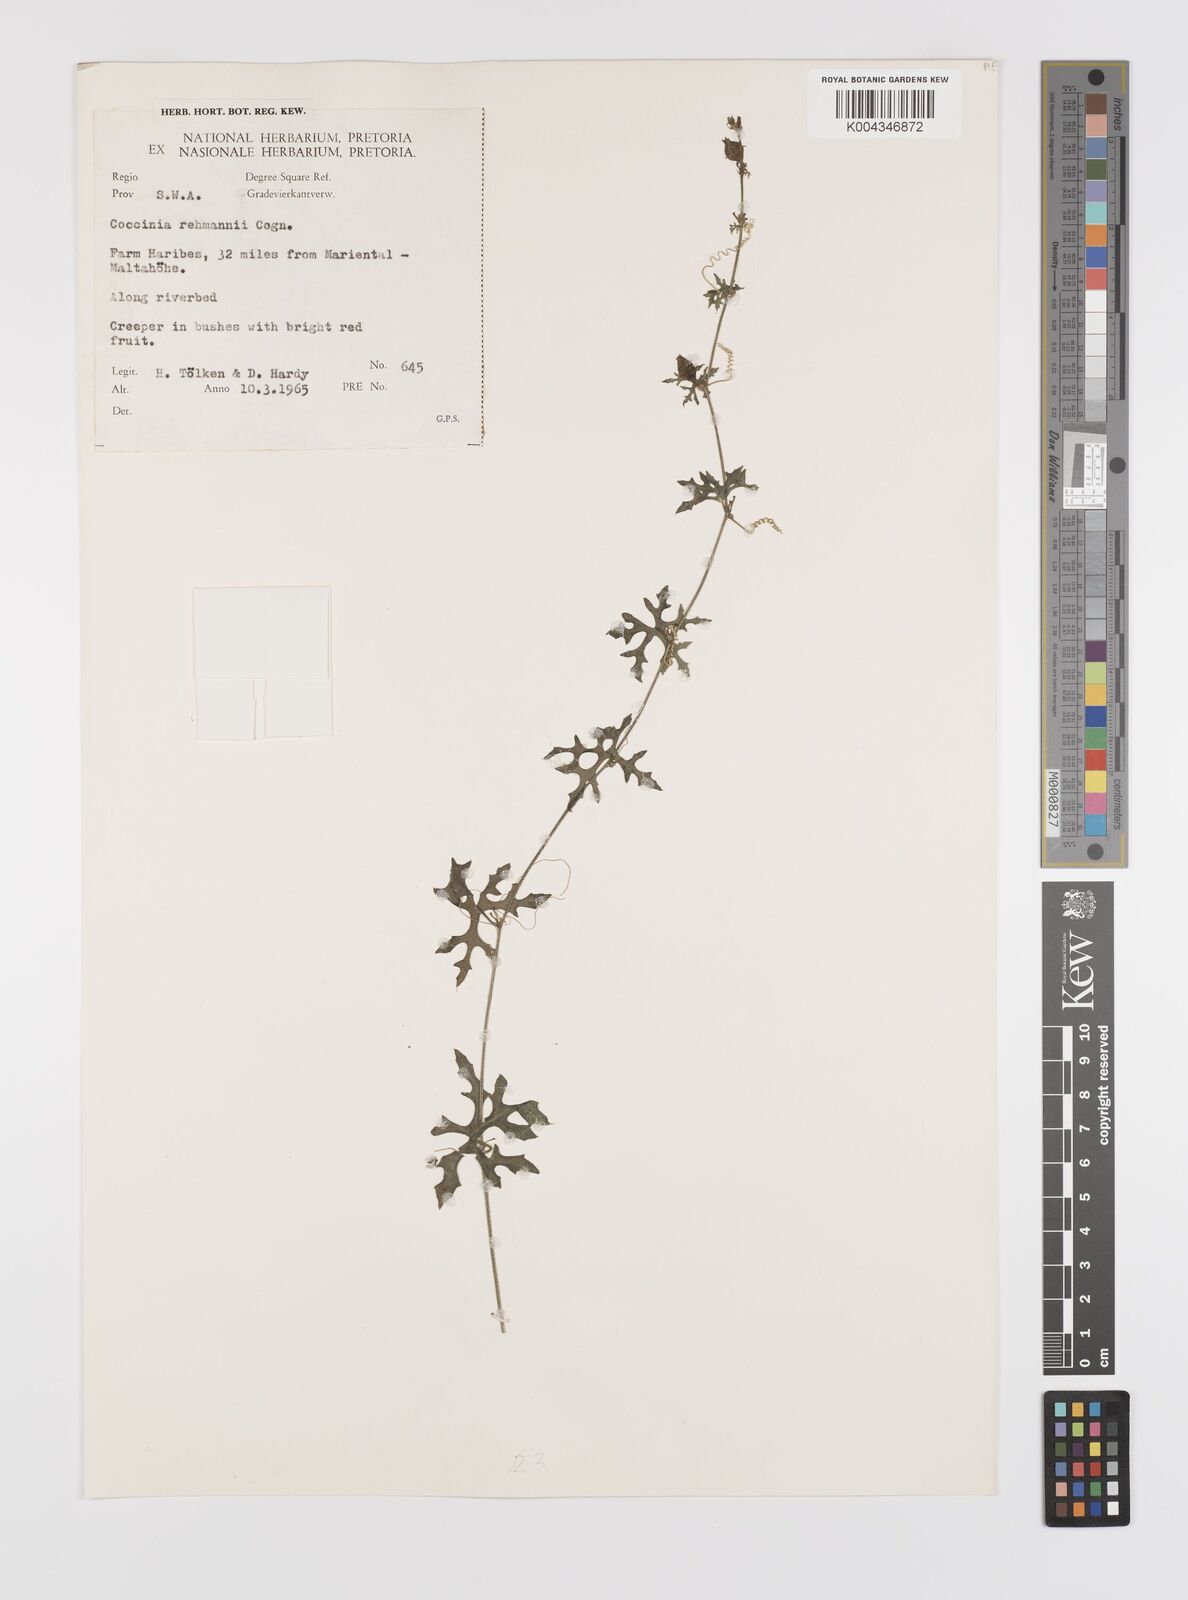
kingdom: Plantae
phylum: Tracheophyta
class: Magnoliopsida
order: Cucurbitales
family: Cucurbitaceae
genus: Coccinia
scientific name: Coccinia rehmannii
